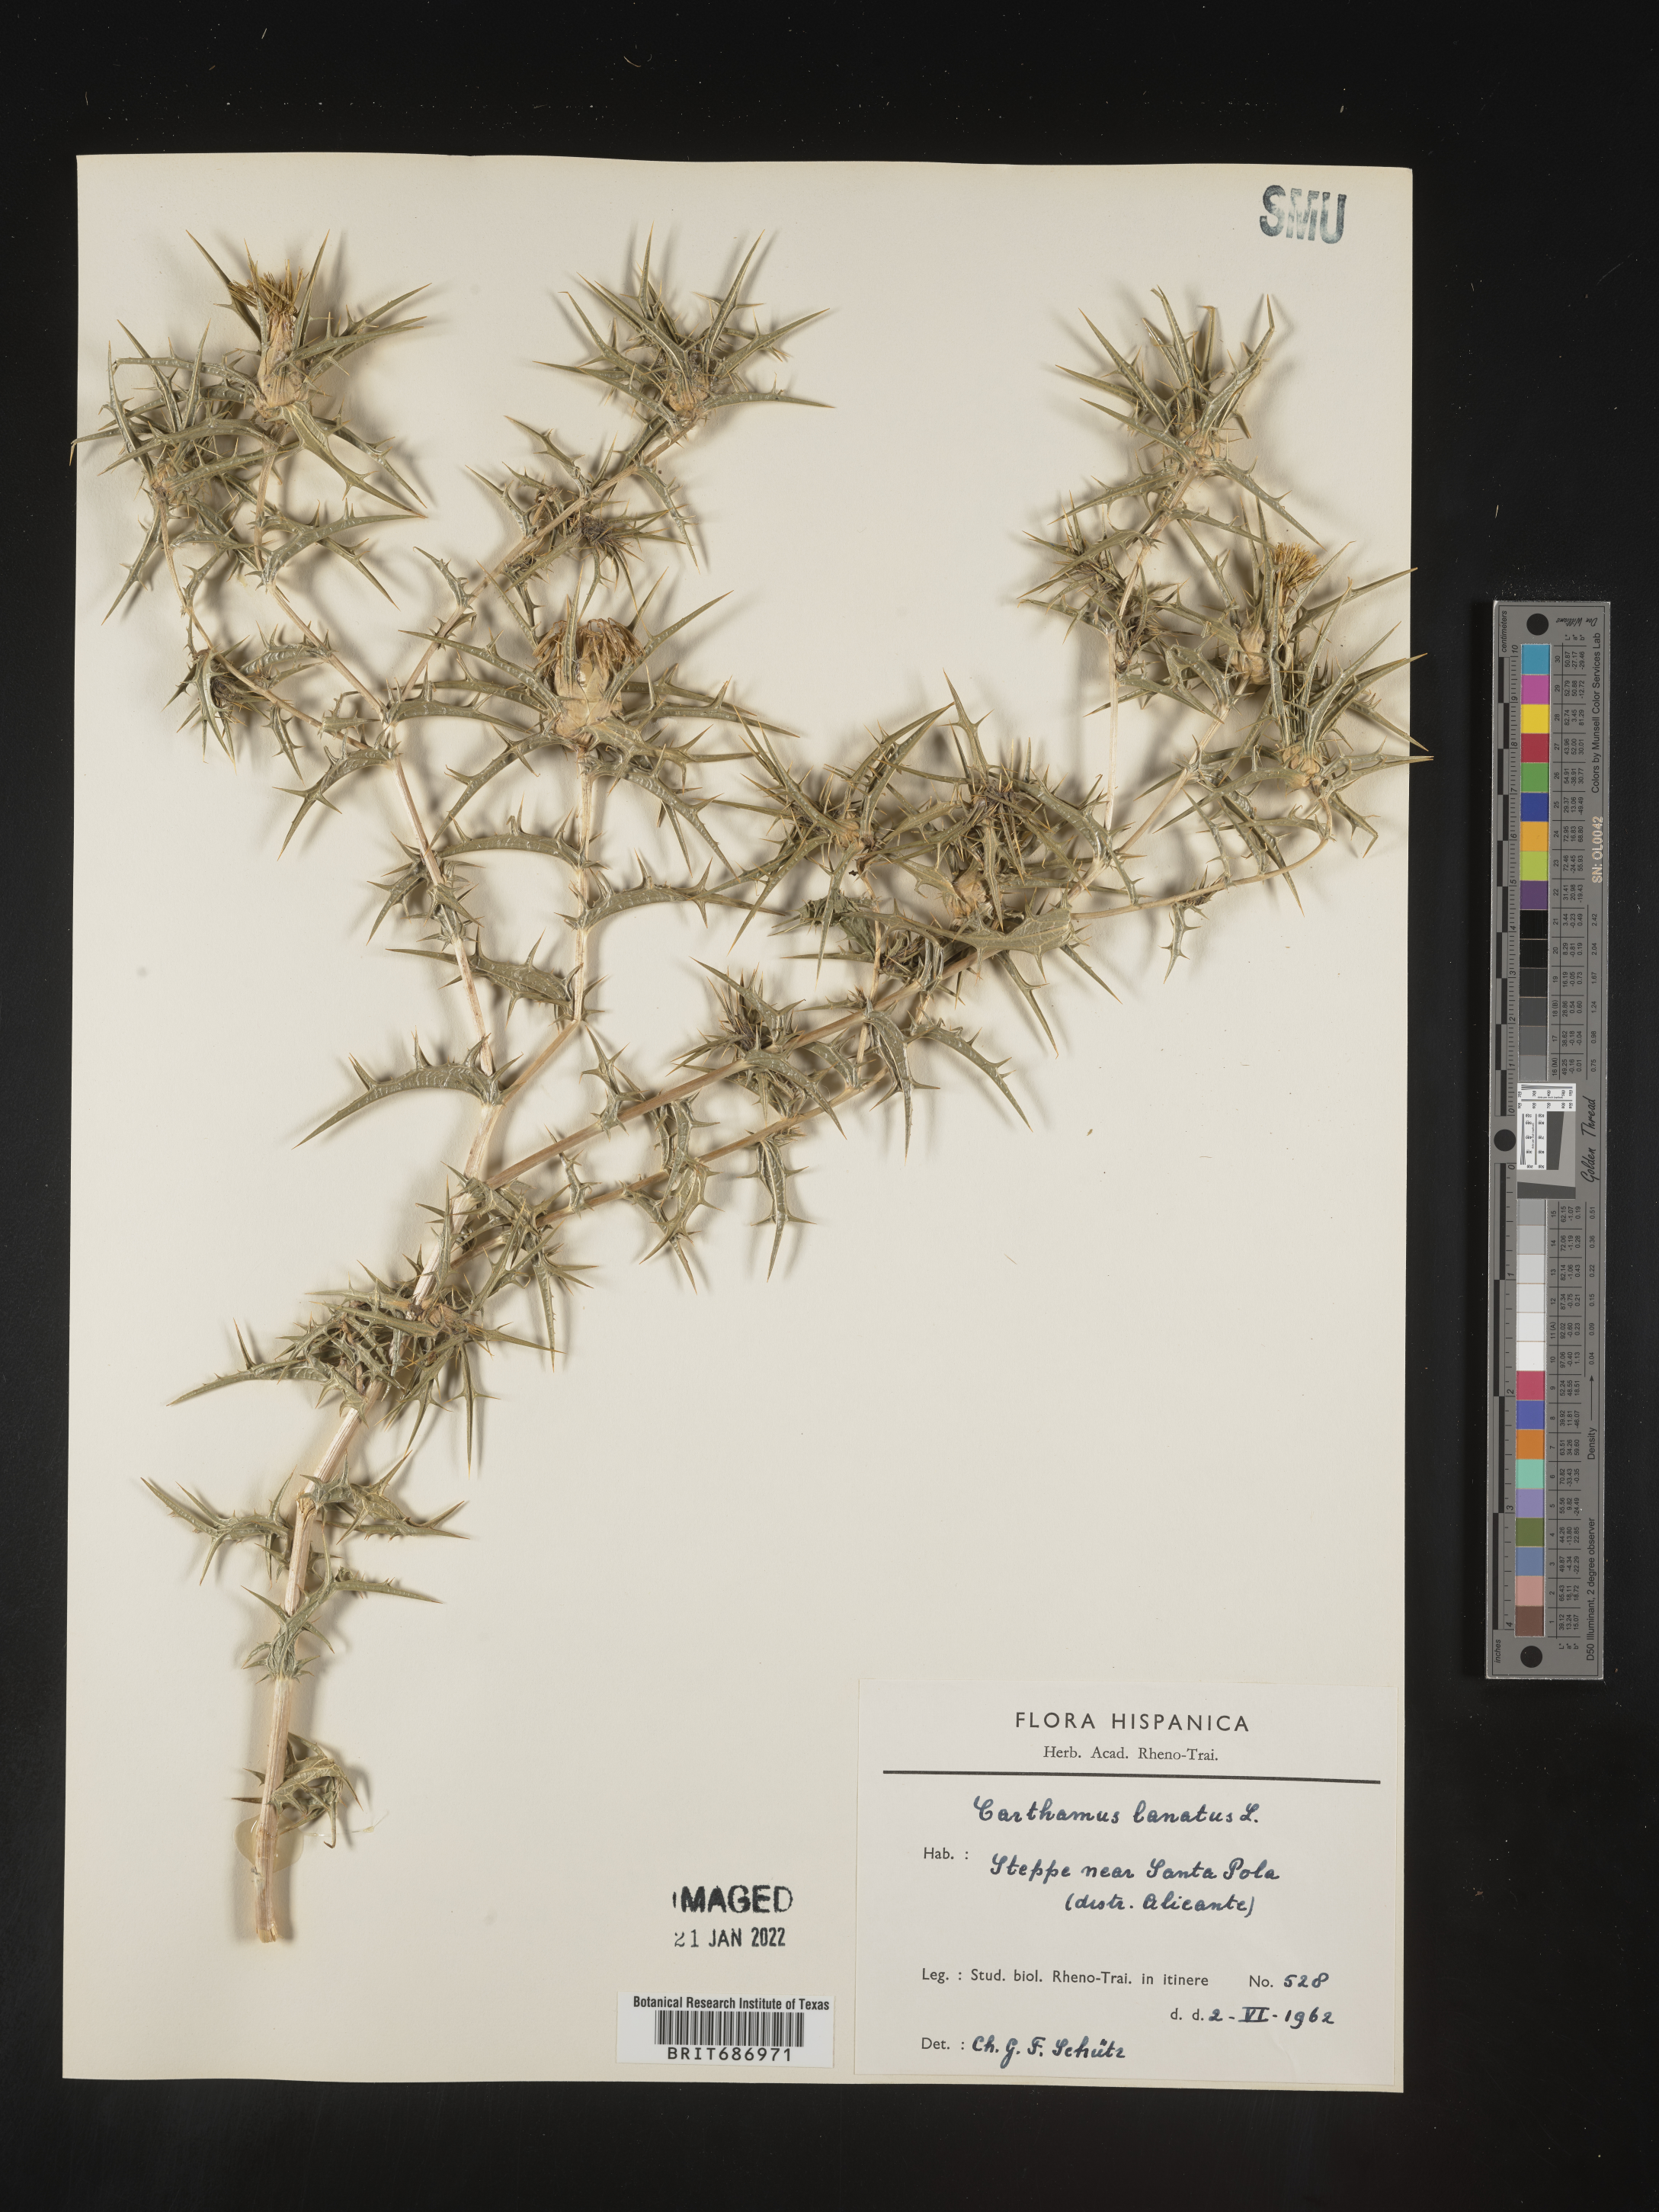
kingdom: Plantae
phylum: Tracheophyta
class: Magnoliopsida
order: Asterales
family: Asteraceae
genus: Carthamus
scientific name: Carthamus
